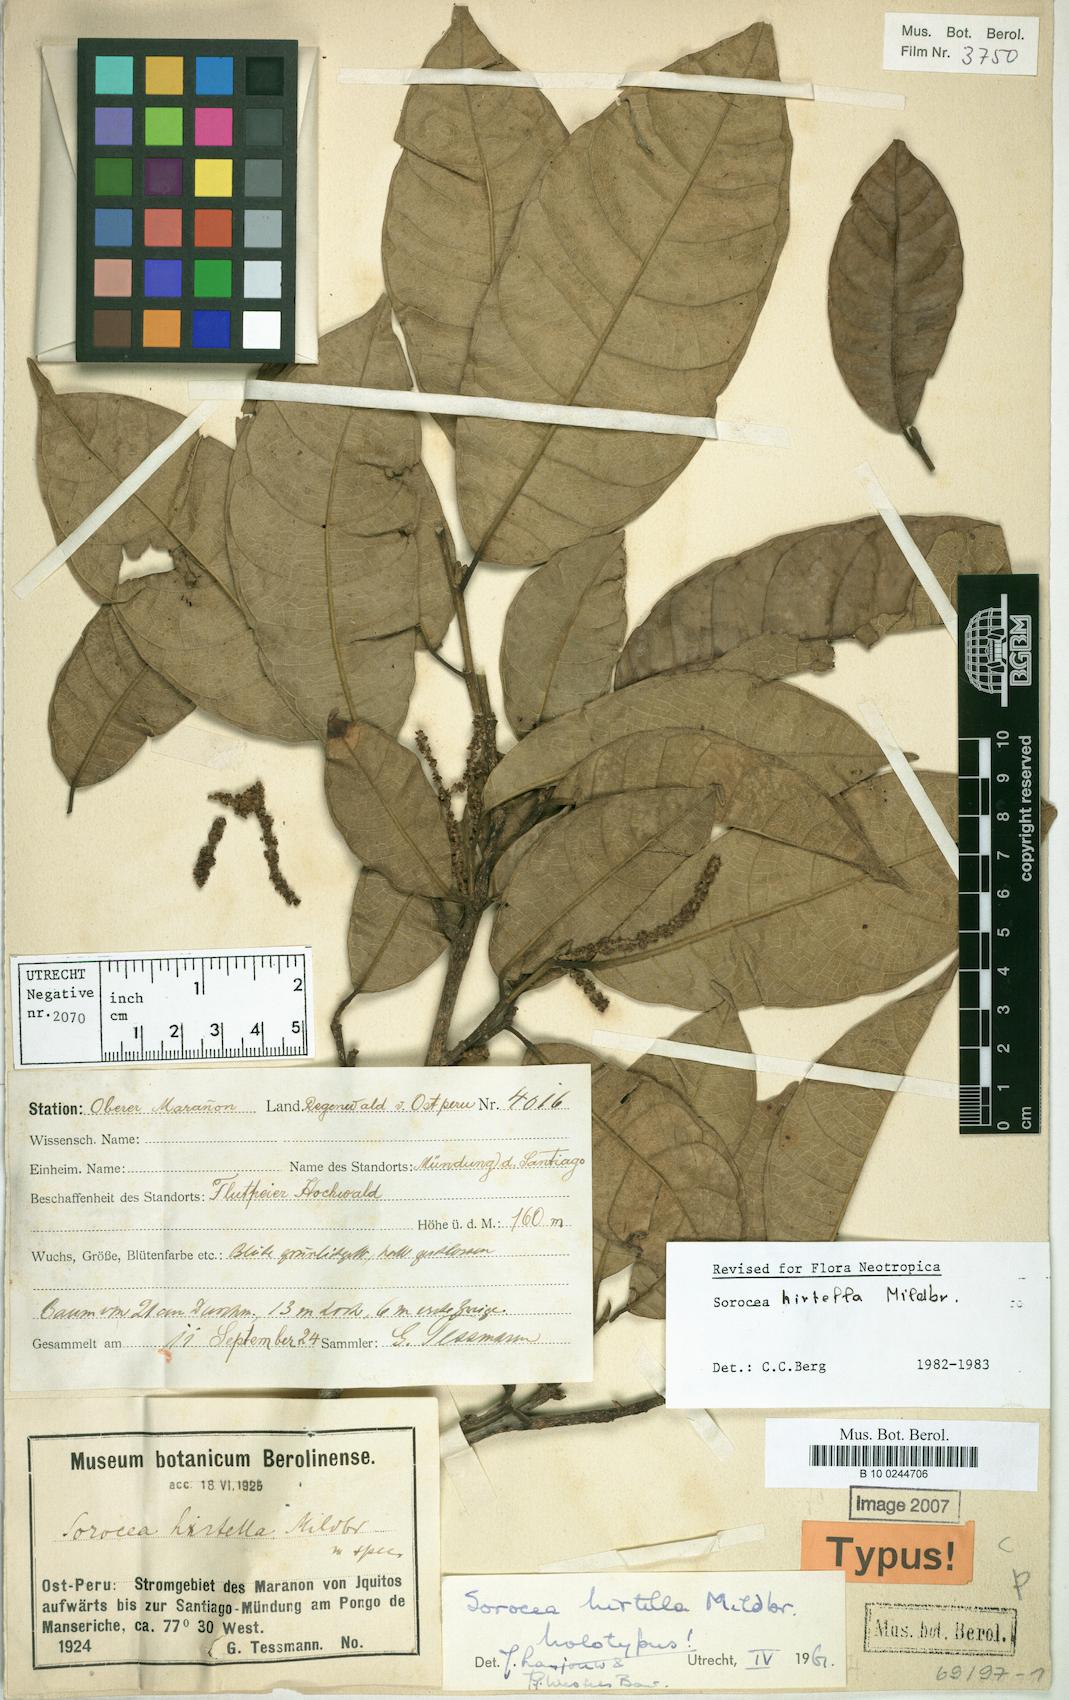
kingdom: Plantae
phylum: Tracheophyta
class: Magnoliopsida
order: Rosales
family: Moraceae
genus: Sorocea
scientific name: Sorocea pubivena
